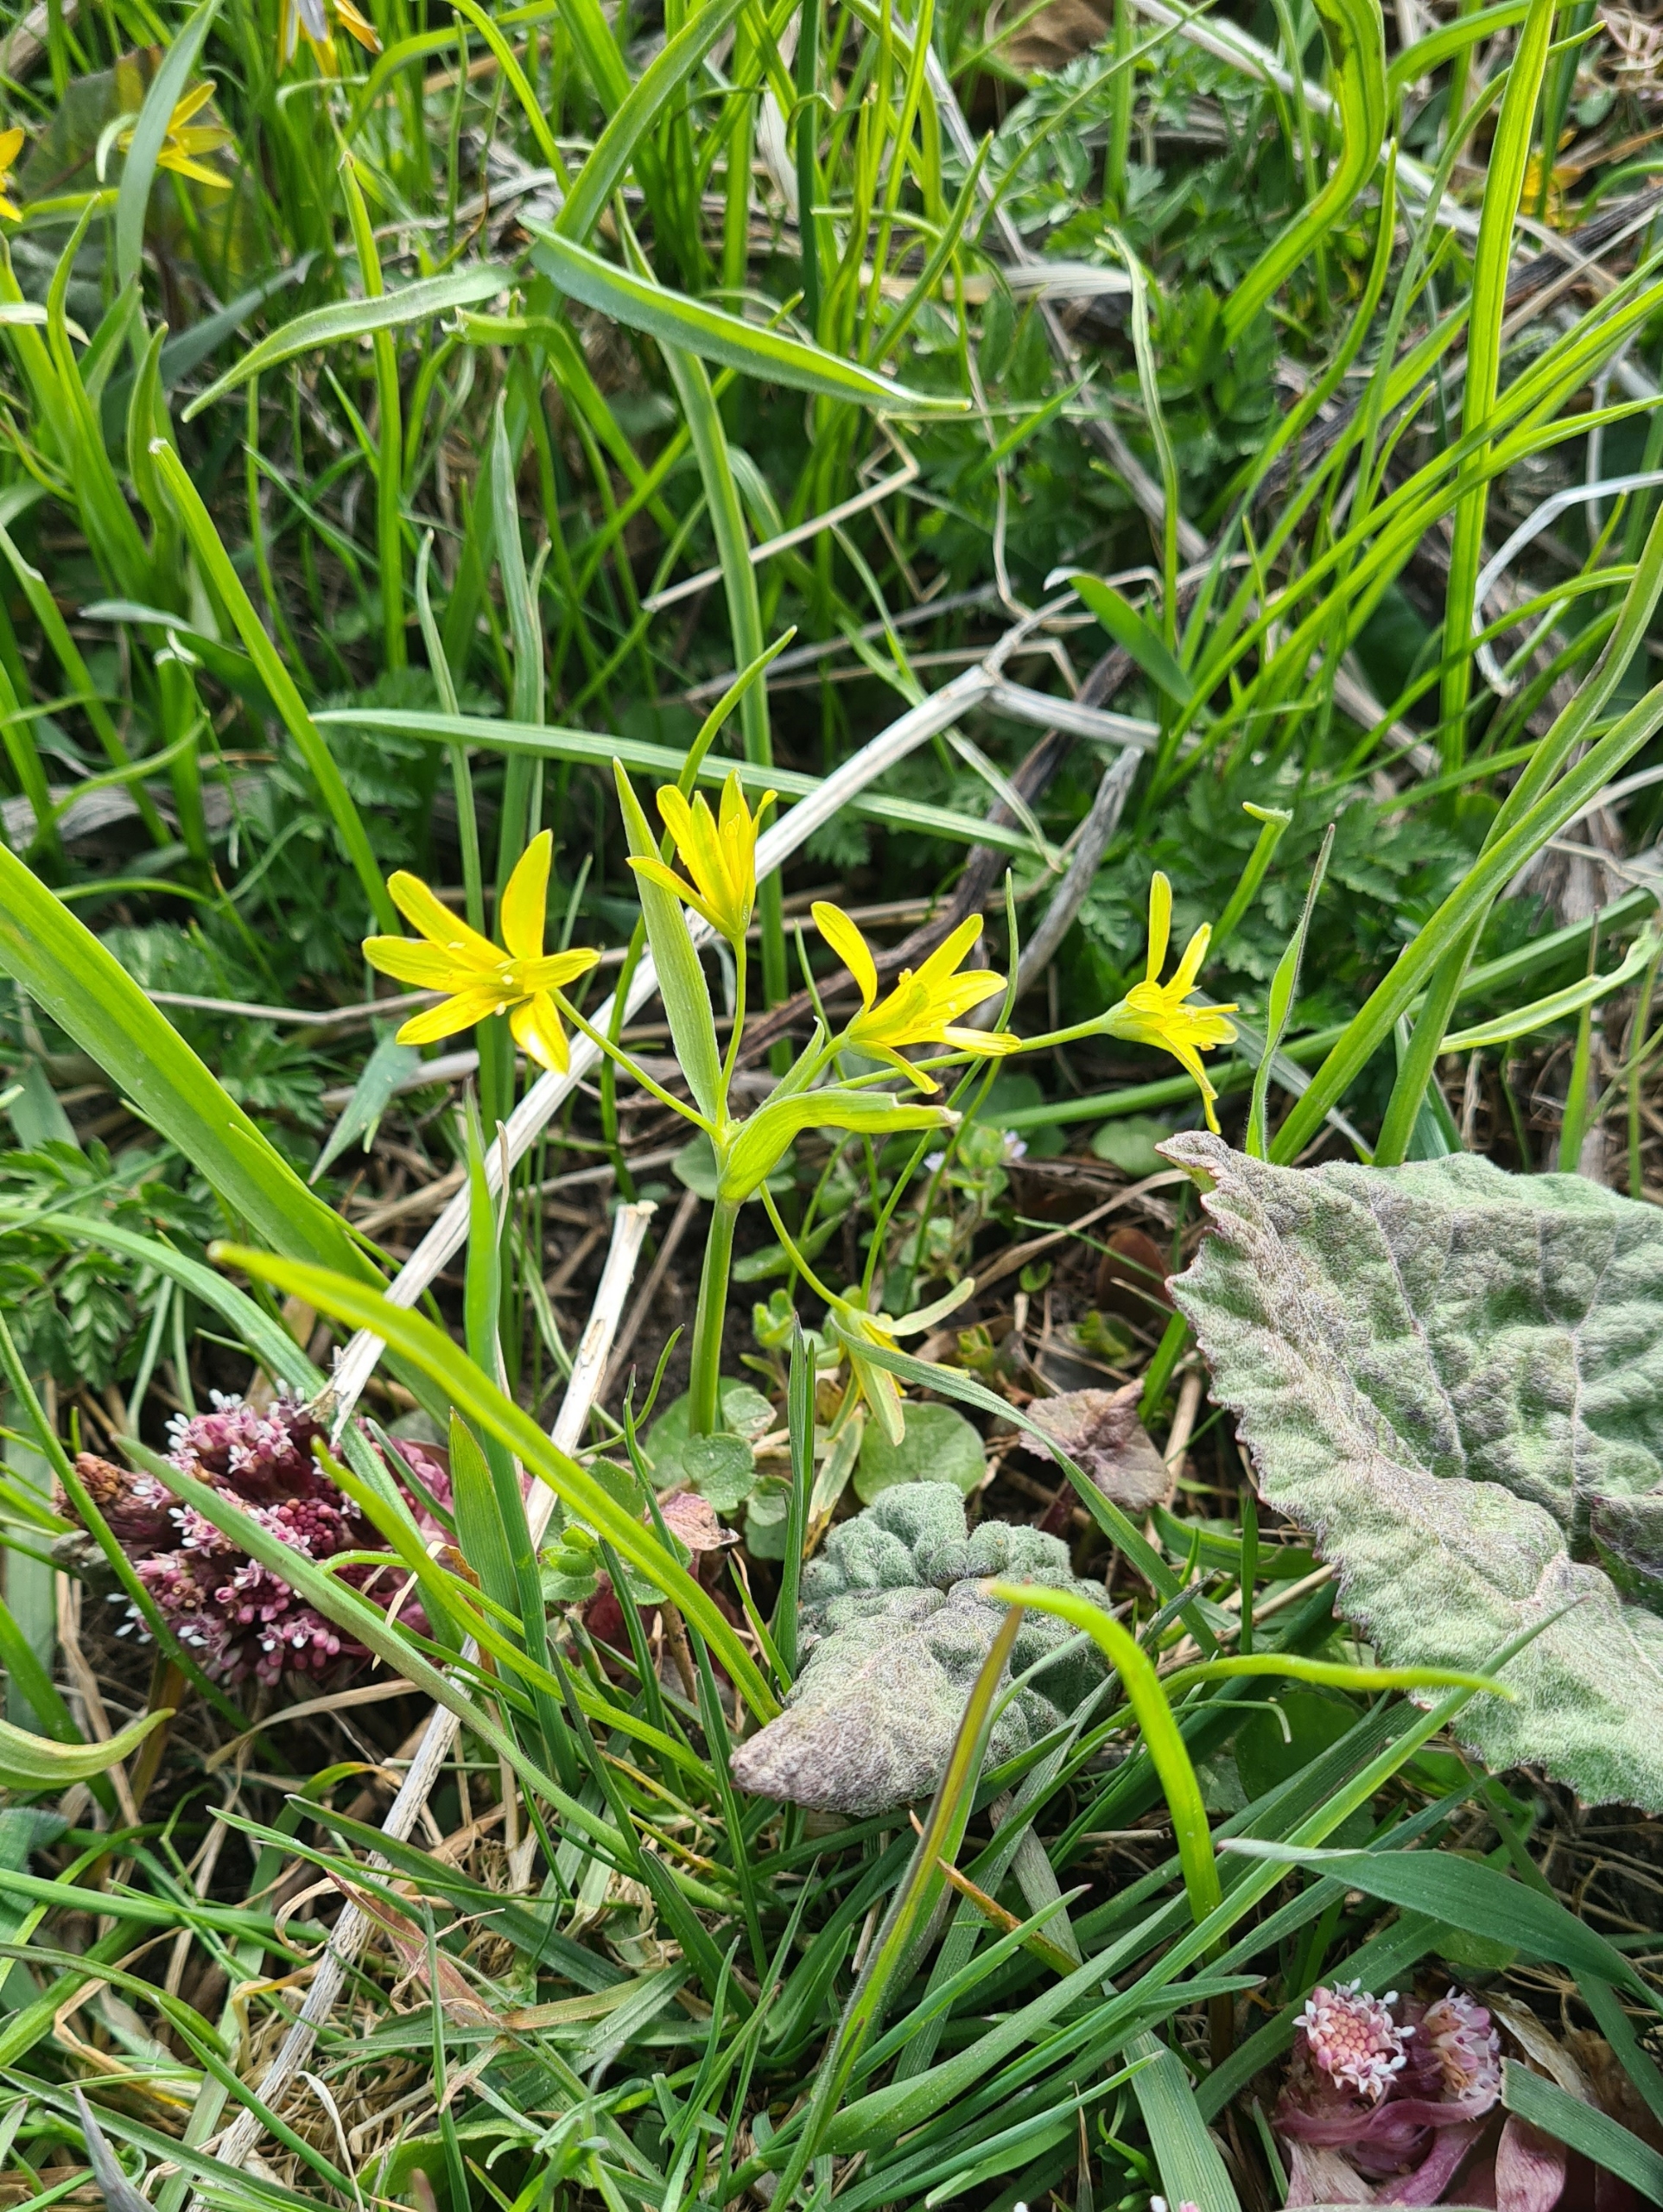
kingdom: Plantae
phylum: Tracheophyta
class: Liliopsida
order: Liliales
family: Liliaceae
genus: Gagea
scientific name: Gagea lutea
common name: Almindelig guldstjerne
